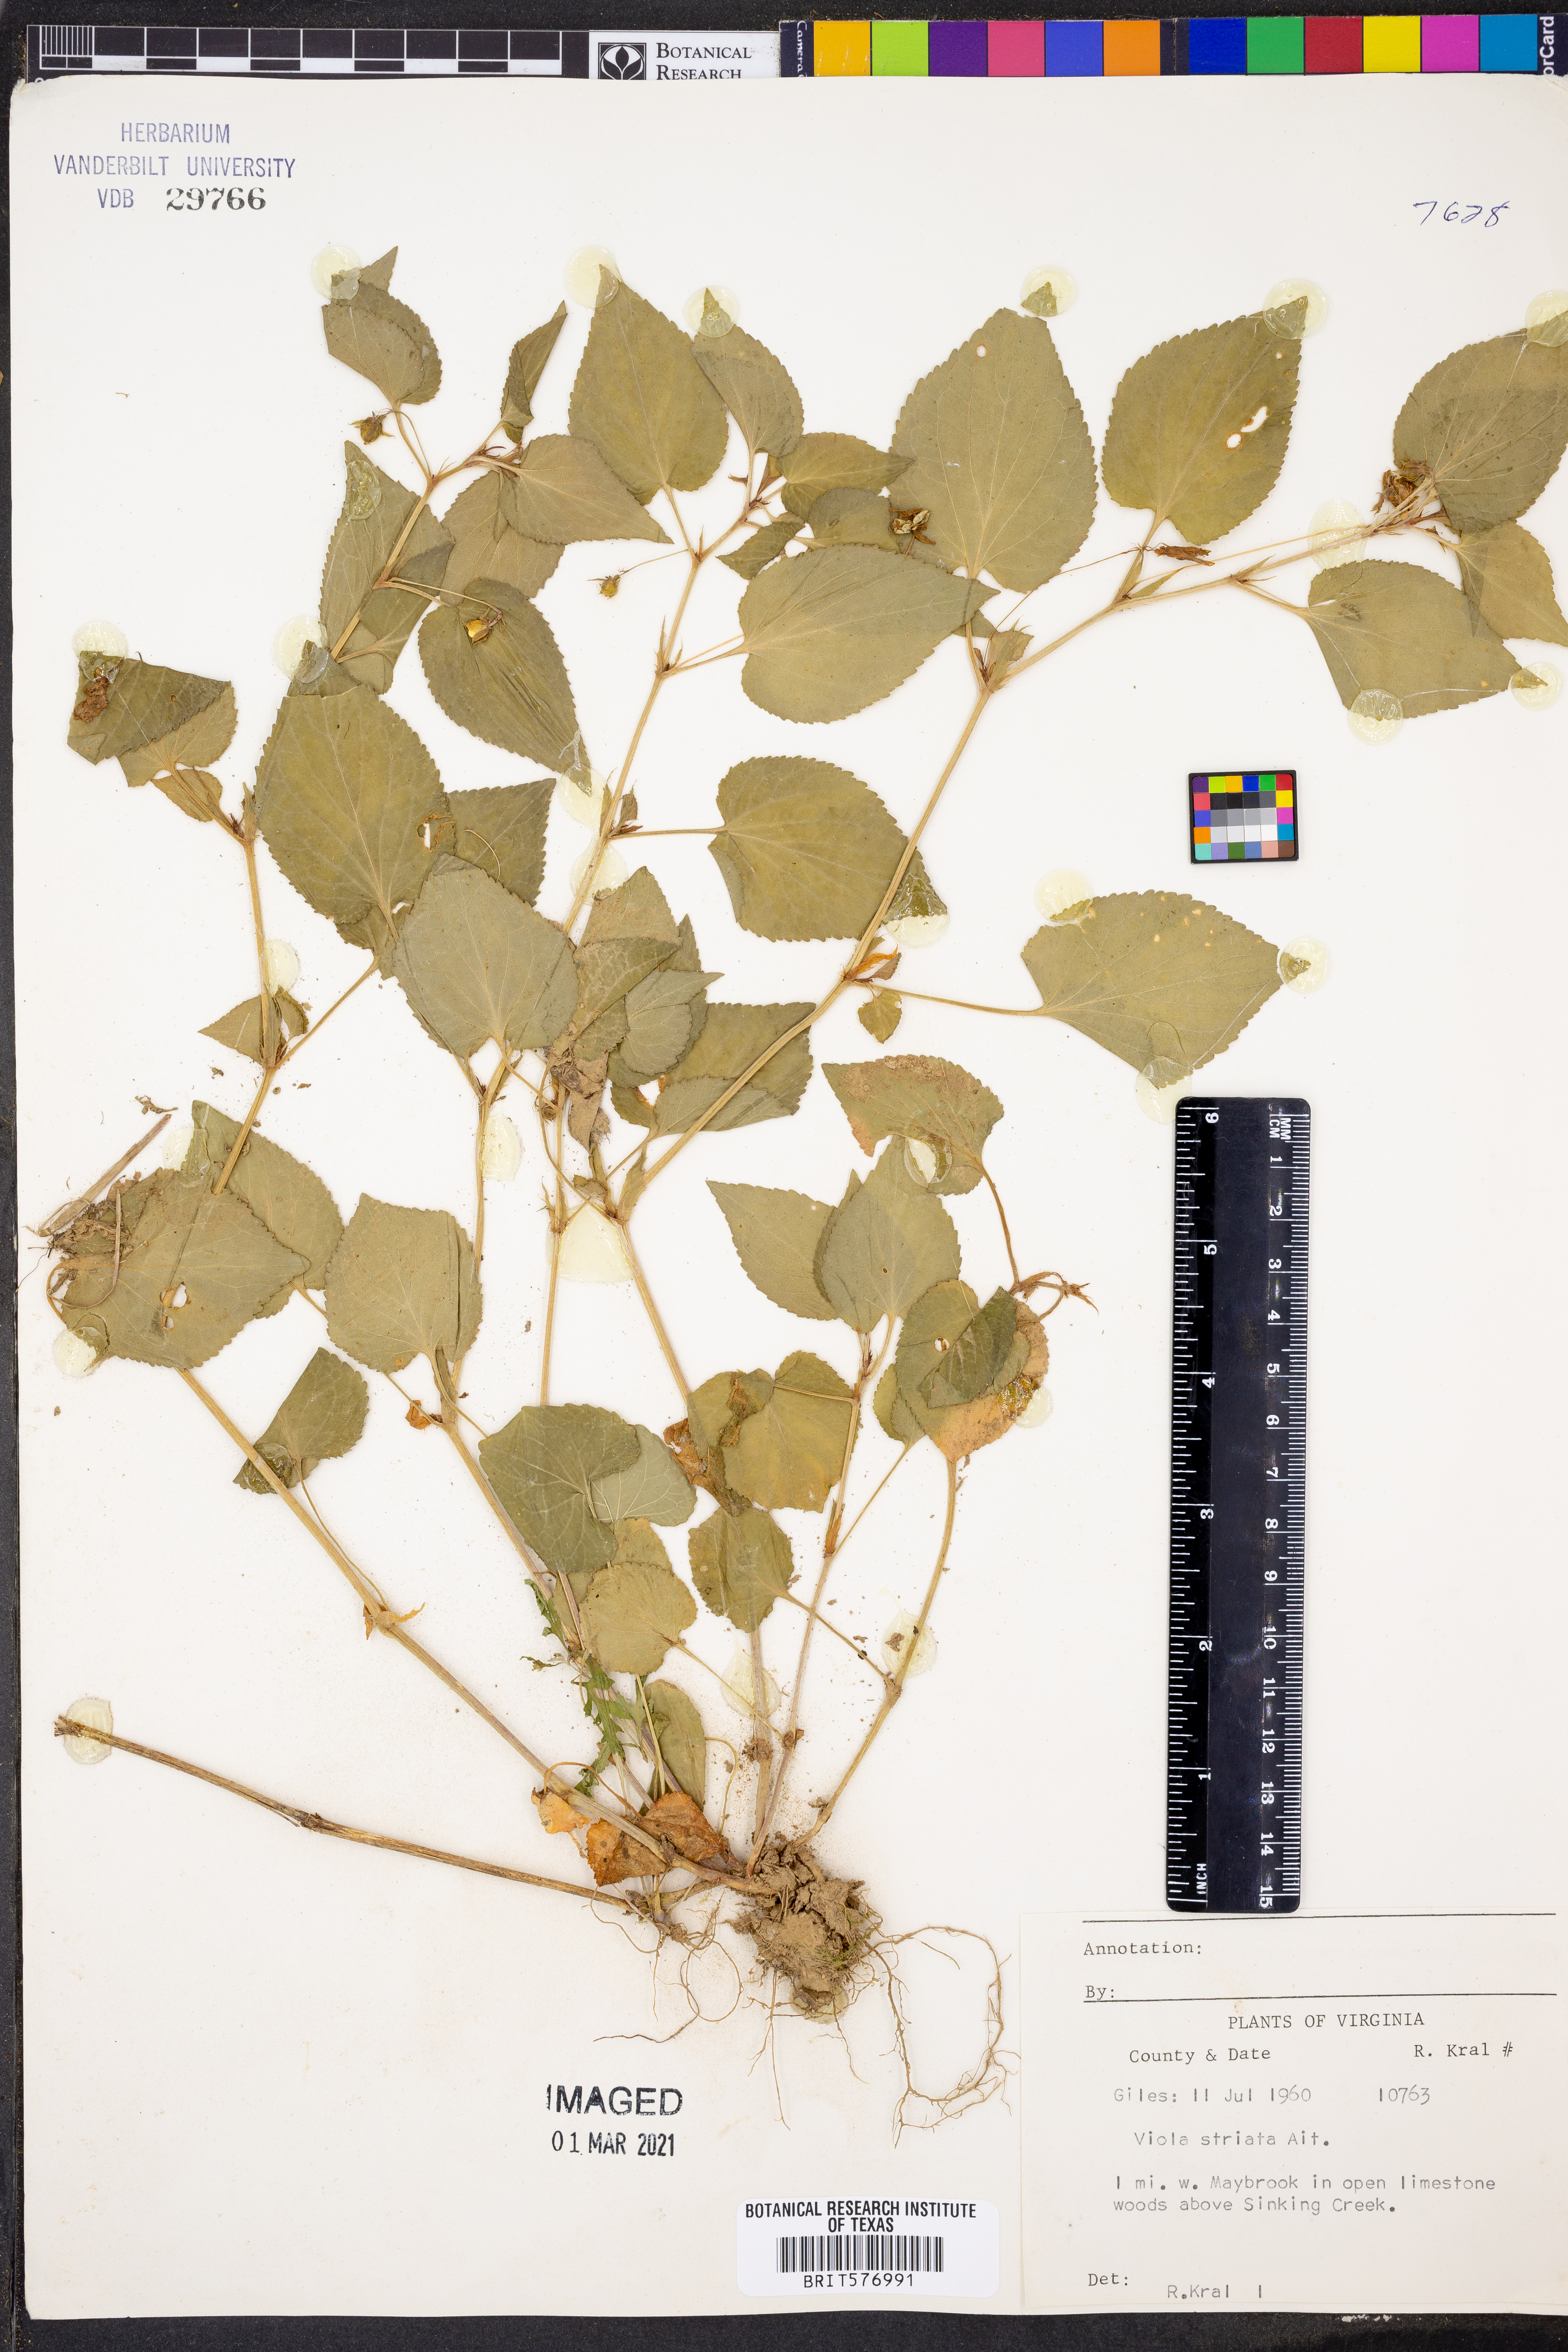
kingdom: Plantae
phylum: Tracheophyta
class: Magnoliopsida
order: Malpighiales
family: Violaceae
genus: Viola
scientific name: Viola striata
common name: Cream violet
